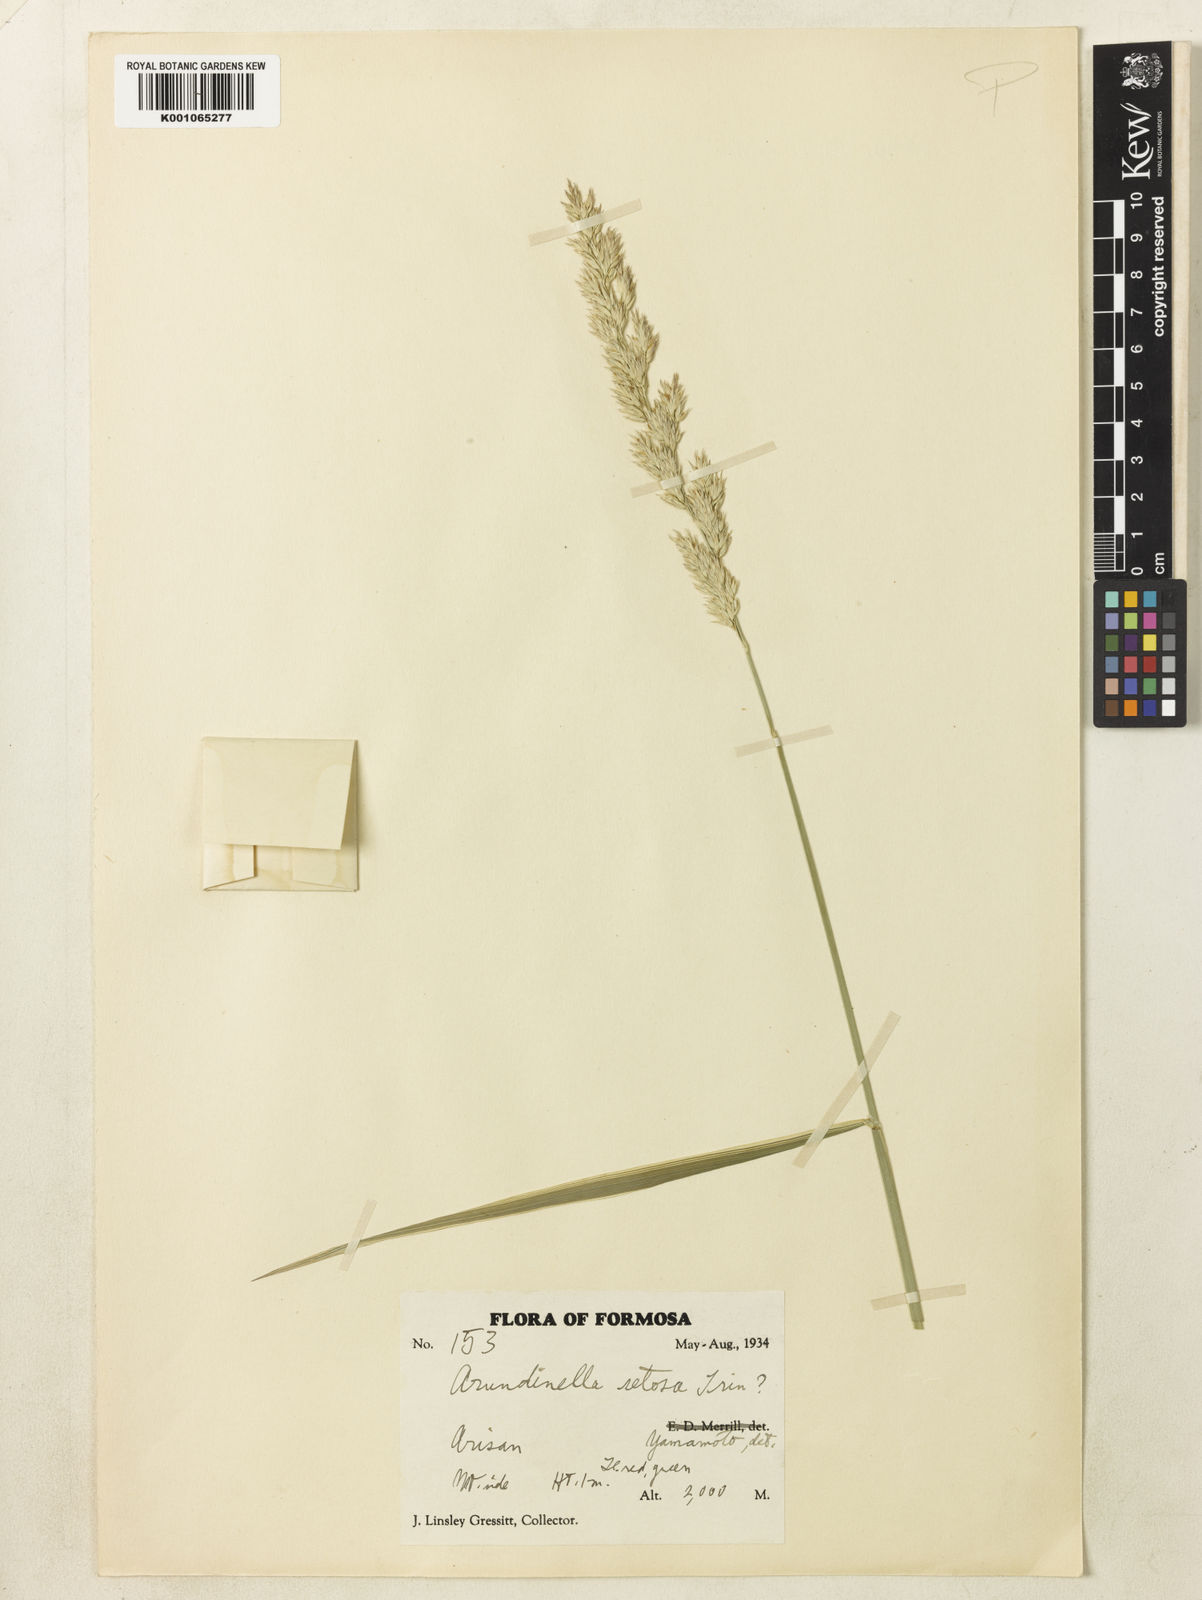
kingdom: Plantae
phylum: Tracheophyta
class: Liliopsida
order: Poales
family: Poaceae
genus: Phalaris
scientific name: Phalaris arundinacea
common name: Reed canary-grass
